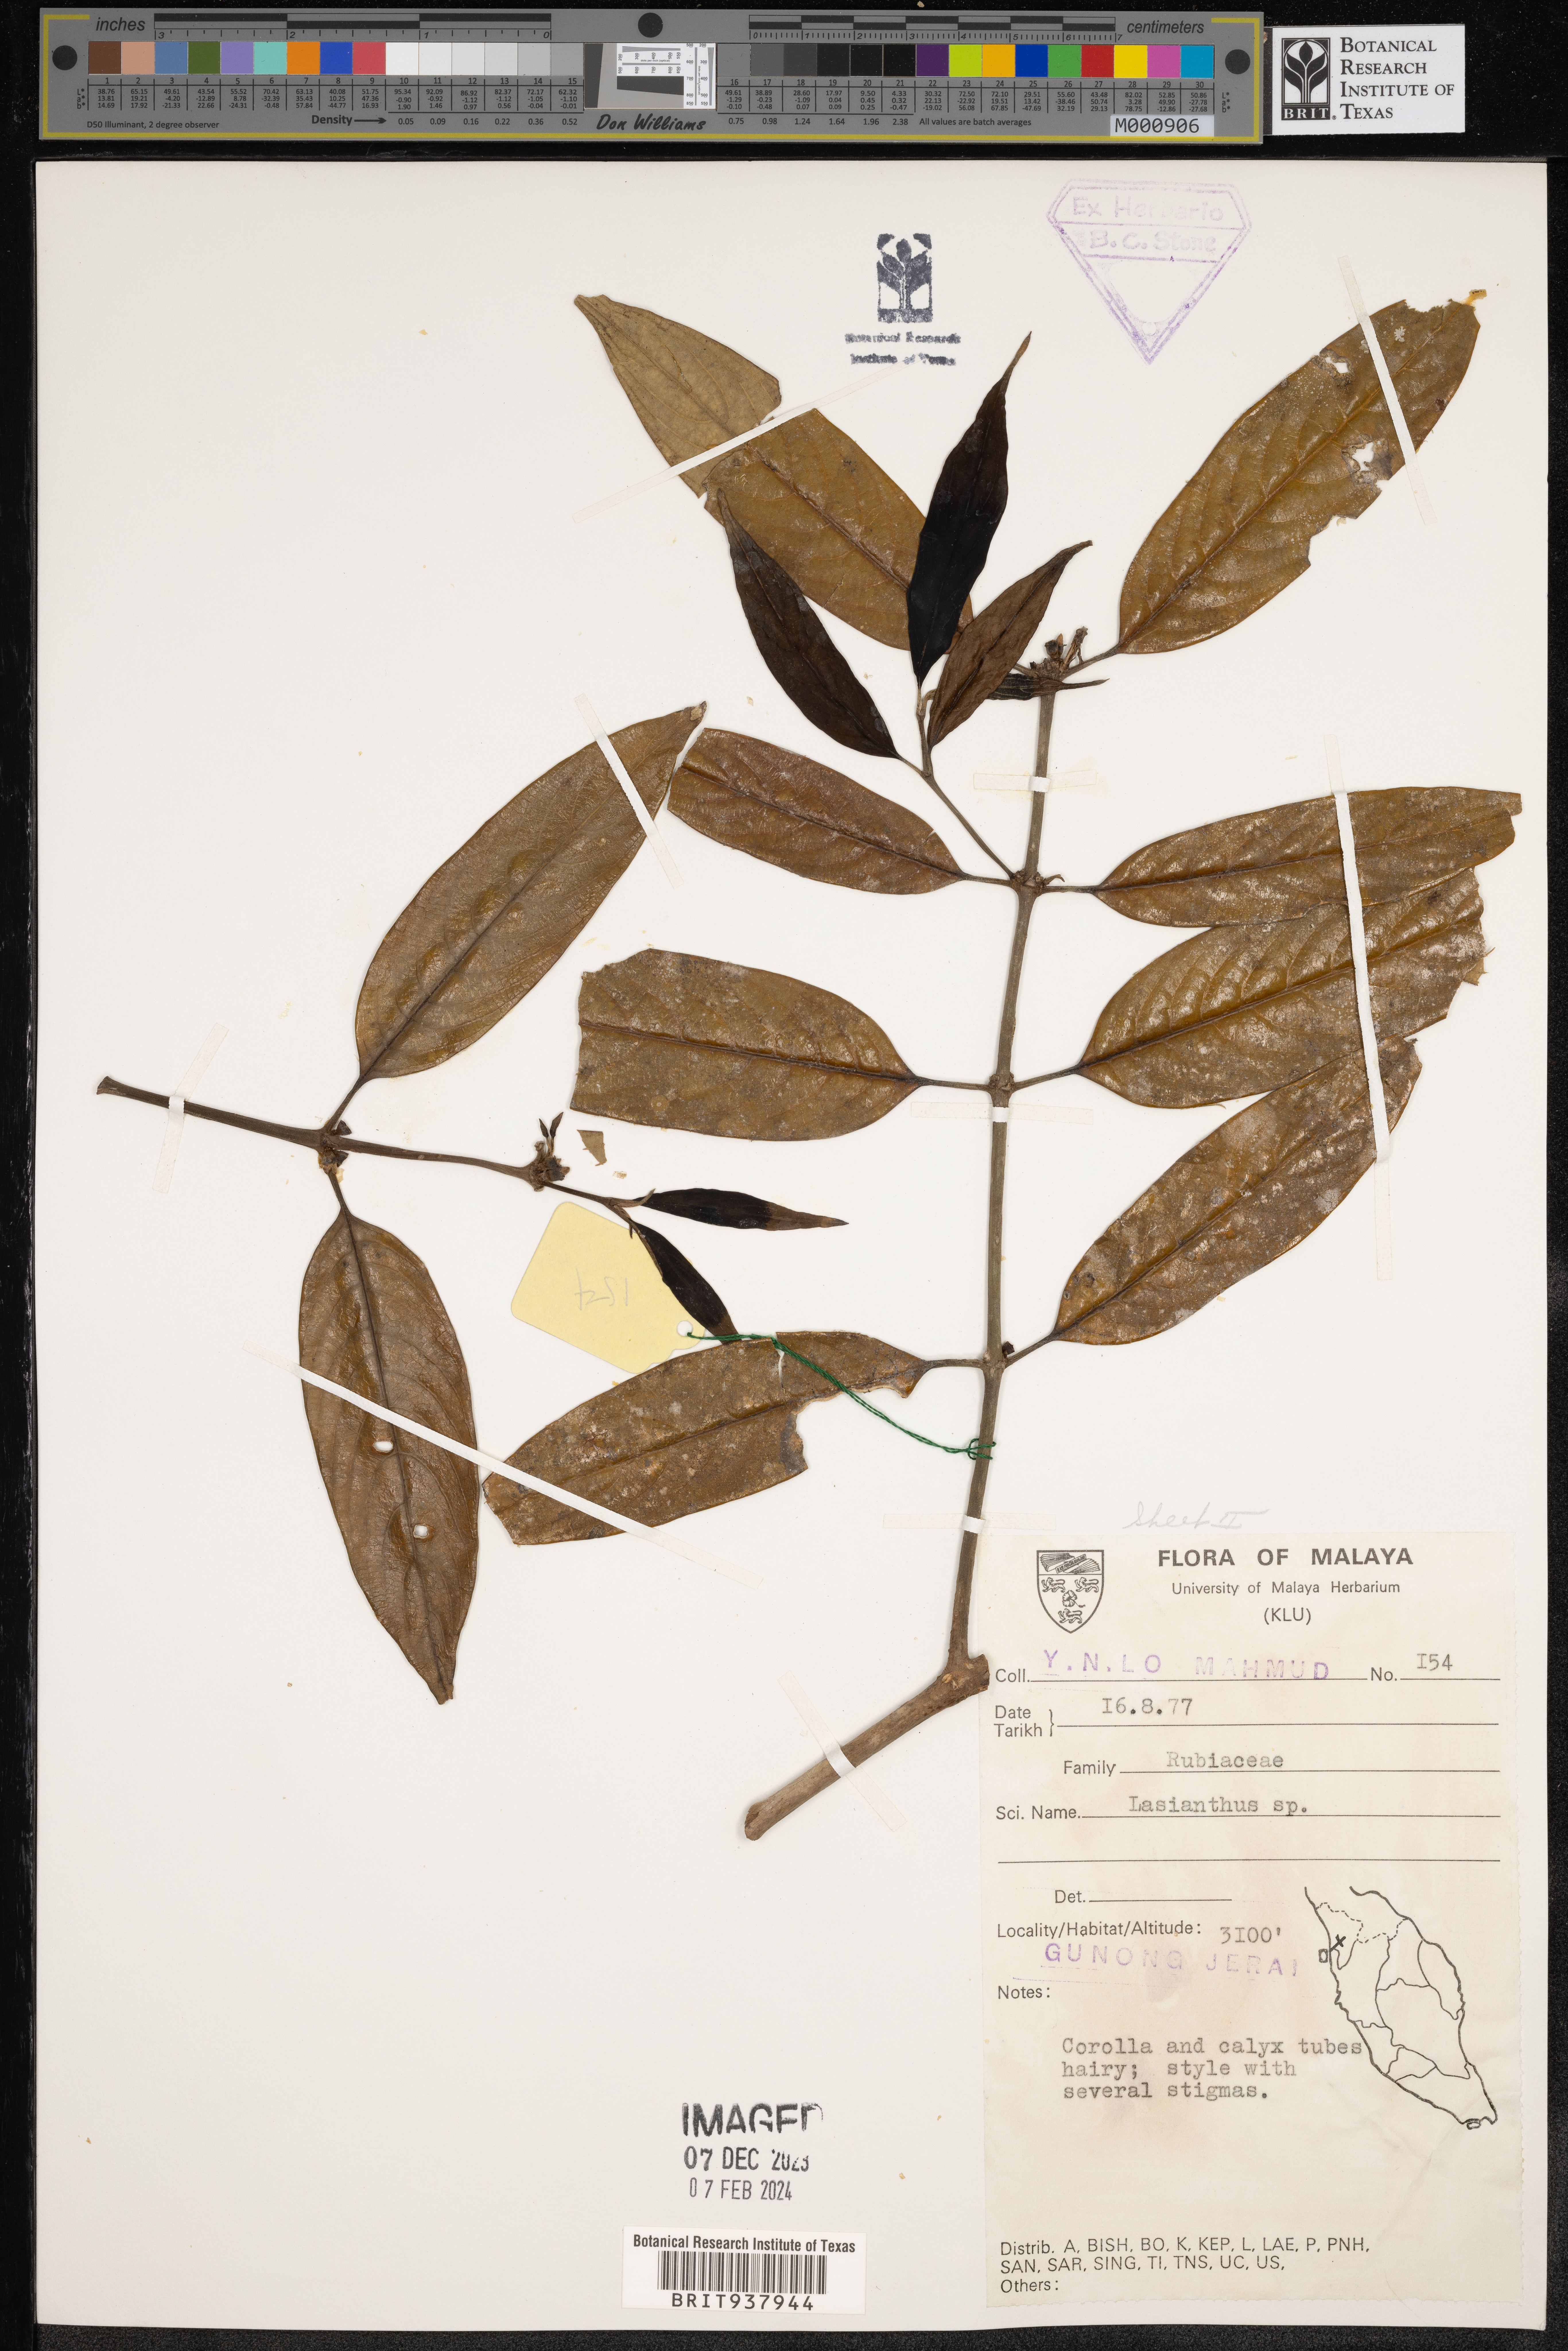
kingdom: Plantae
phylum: Tracheophyta
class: Magnoliopsida
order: Gentianales
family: Rubiaceae
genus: Lasianthus
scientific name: Lasianthus
